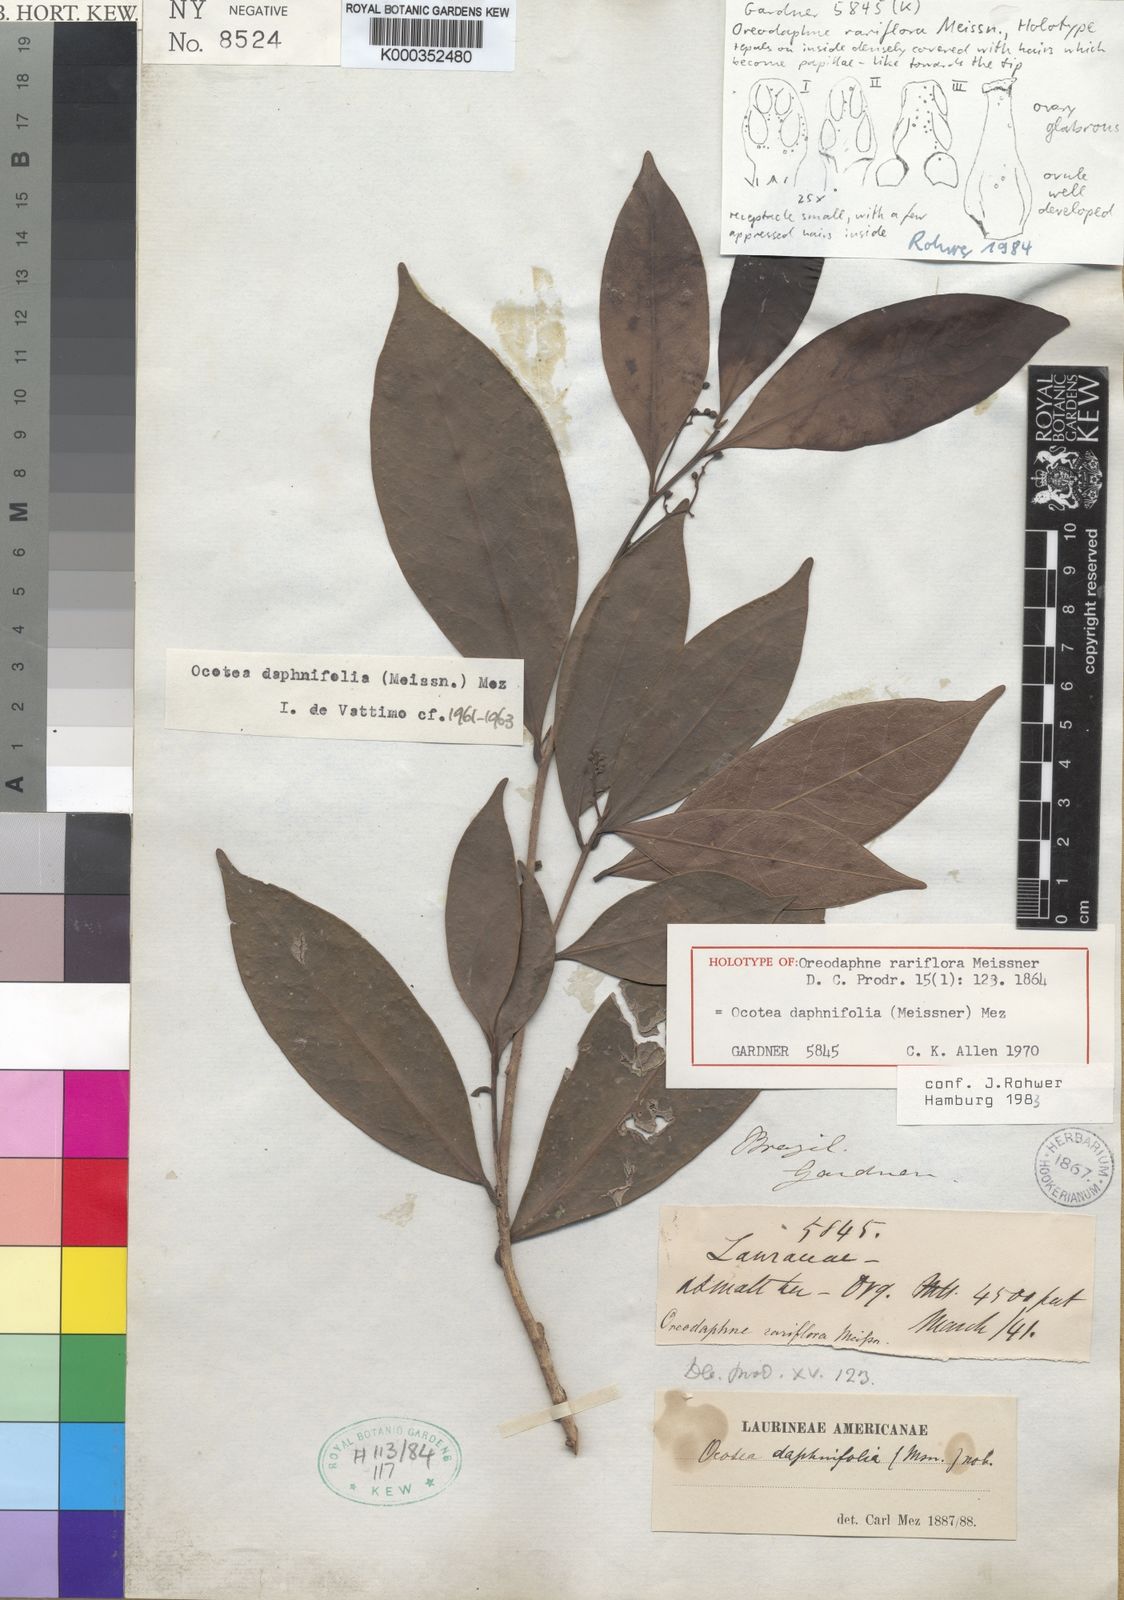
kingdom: Plantae
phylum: Tracheophyta
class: Magnoliopsida
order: Laurales
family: Lauraceae
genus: Ocotea
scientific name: Ocotea daphnifolia
